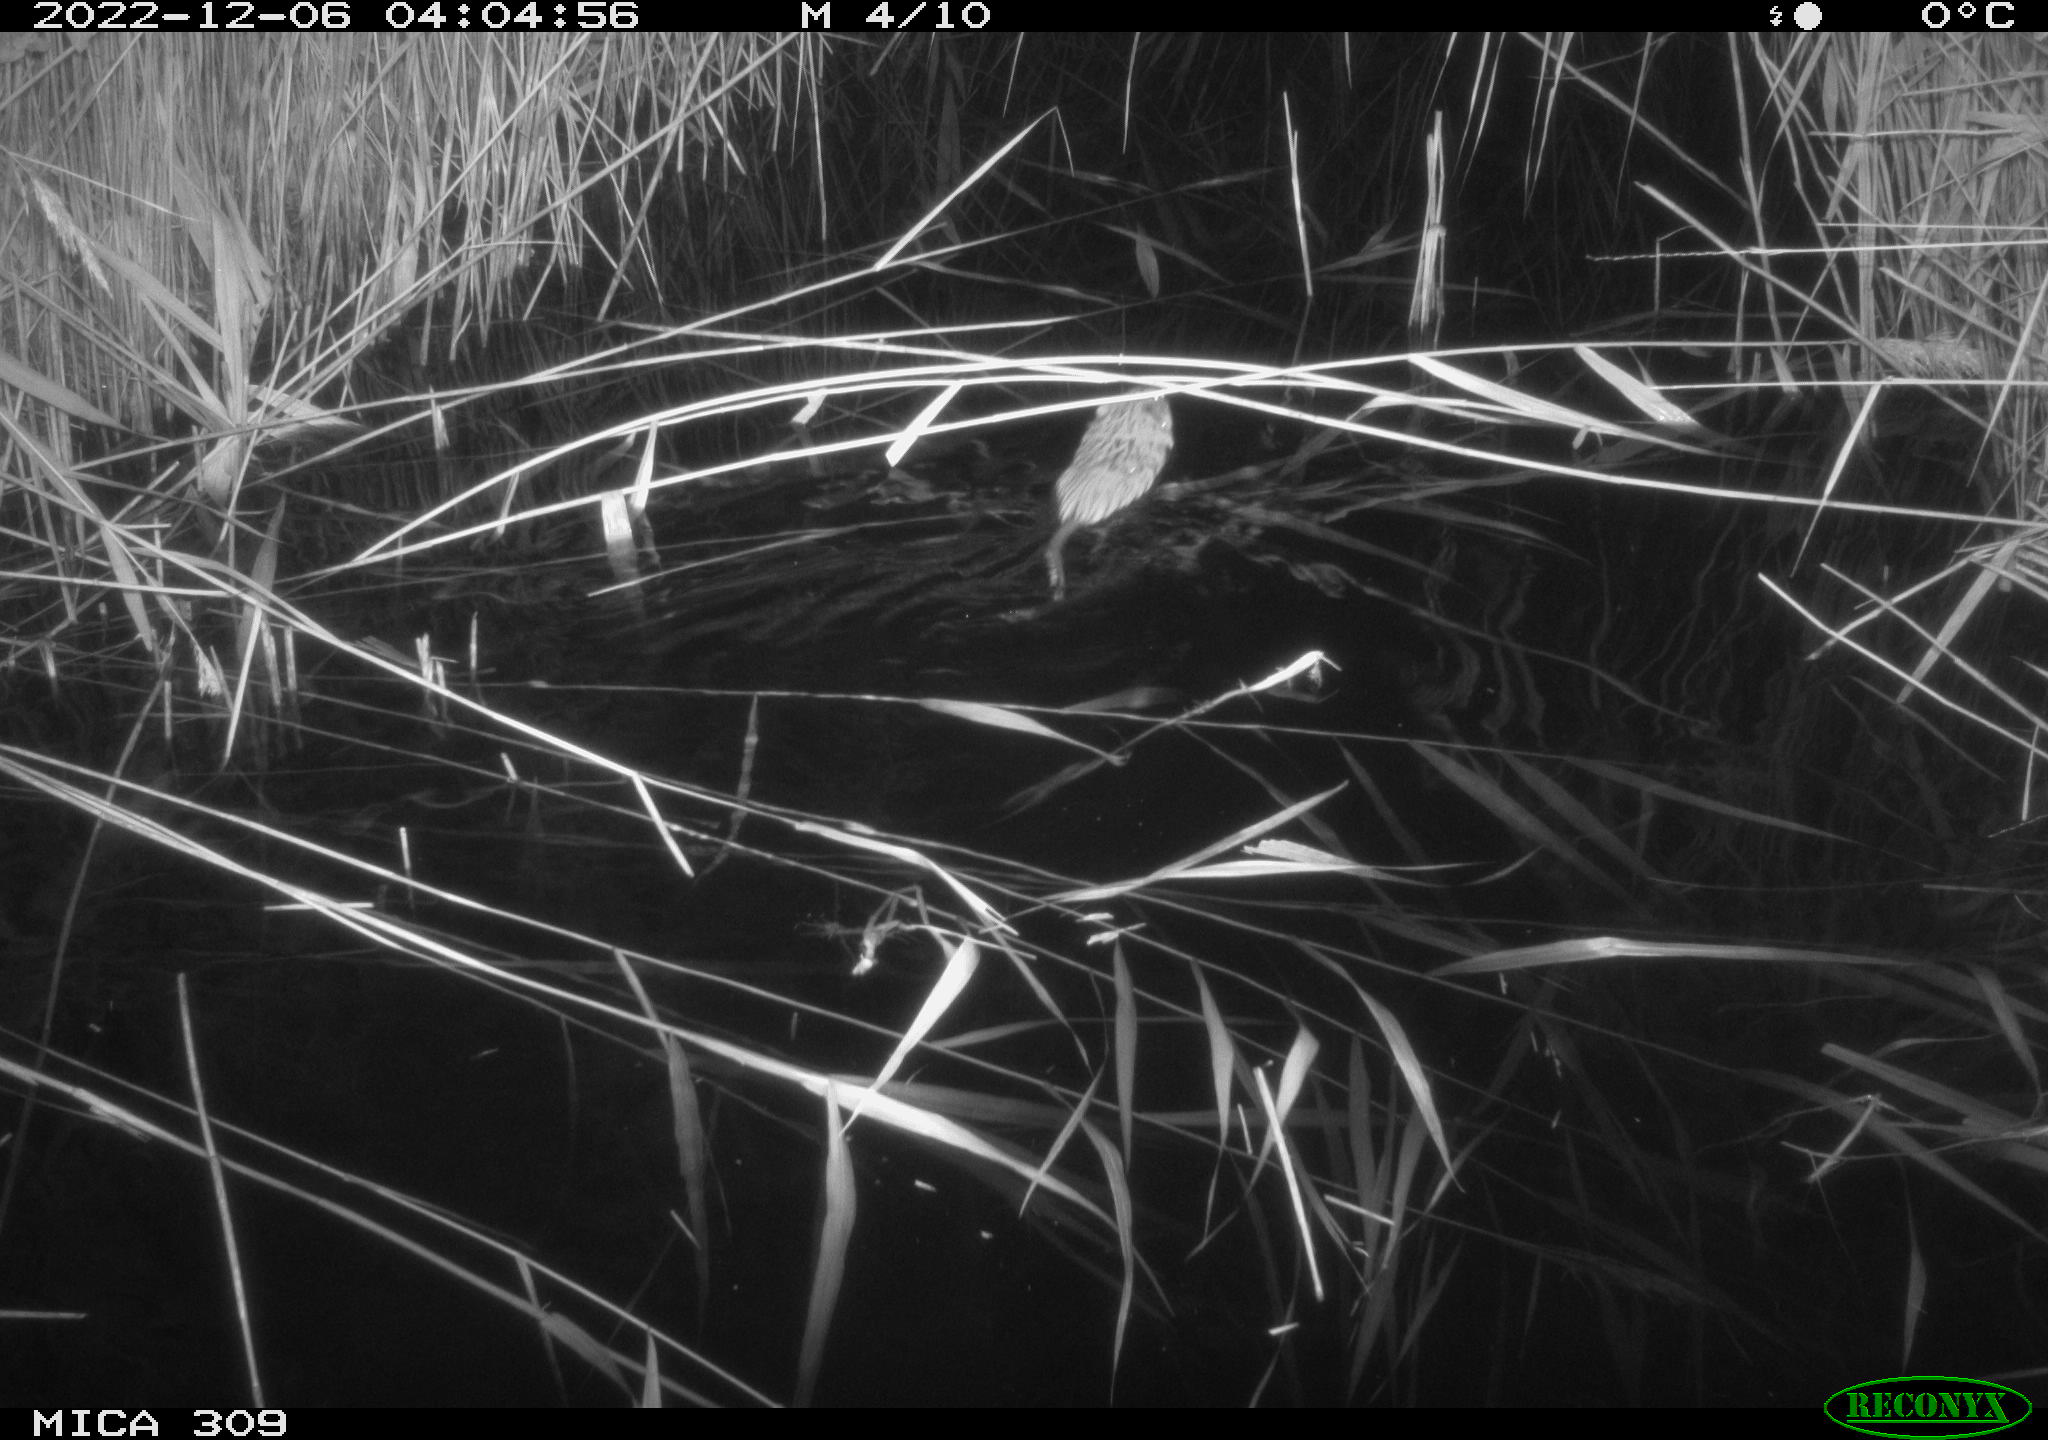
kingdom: Animalia
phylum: Chordata
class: Mammalia
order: Rodentia
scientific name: Rodentia
